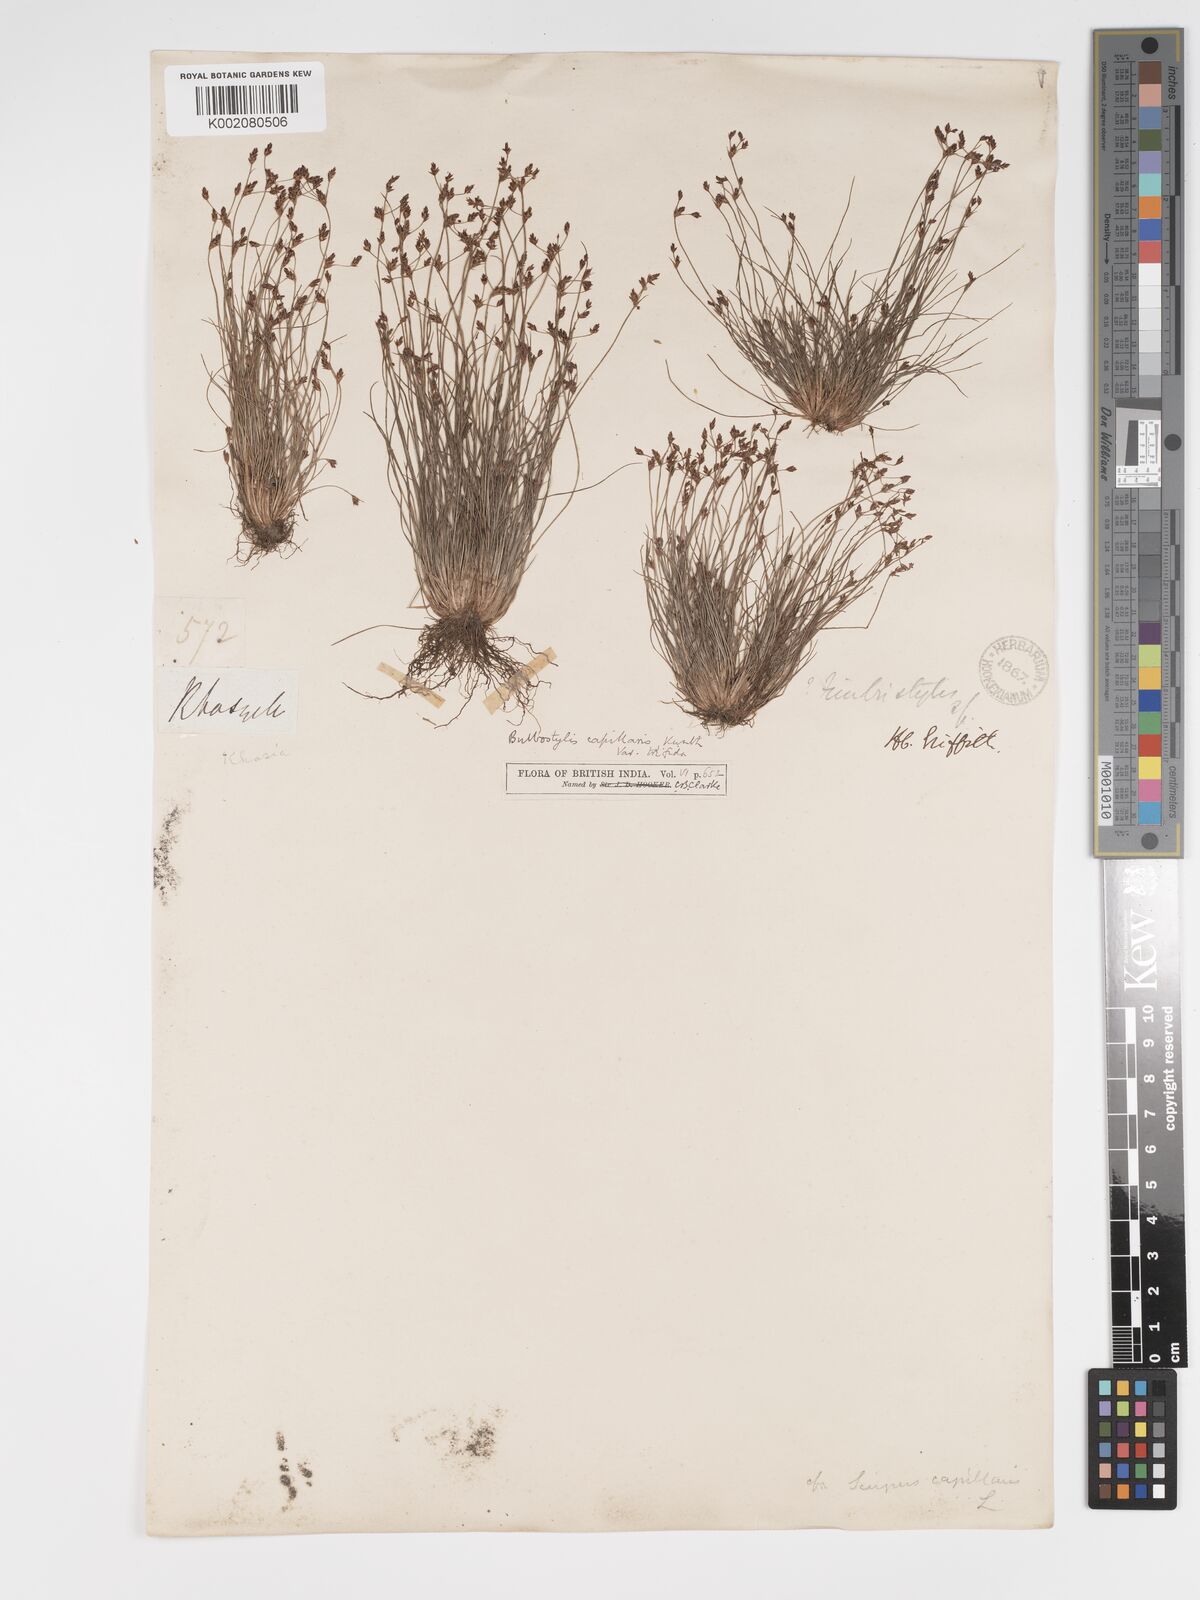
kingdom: Plantae
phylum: Tracheophyta
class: Liliopsida
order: Poales
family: Cyperaceae
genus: Bulbostylis
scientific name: Bulbostylis capillaris
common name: Densetuft hairsedge
